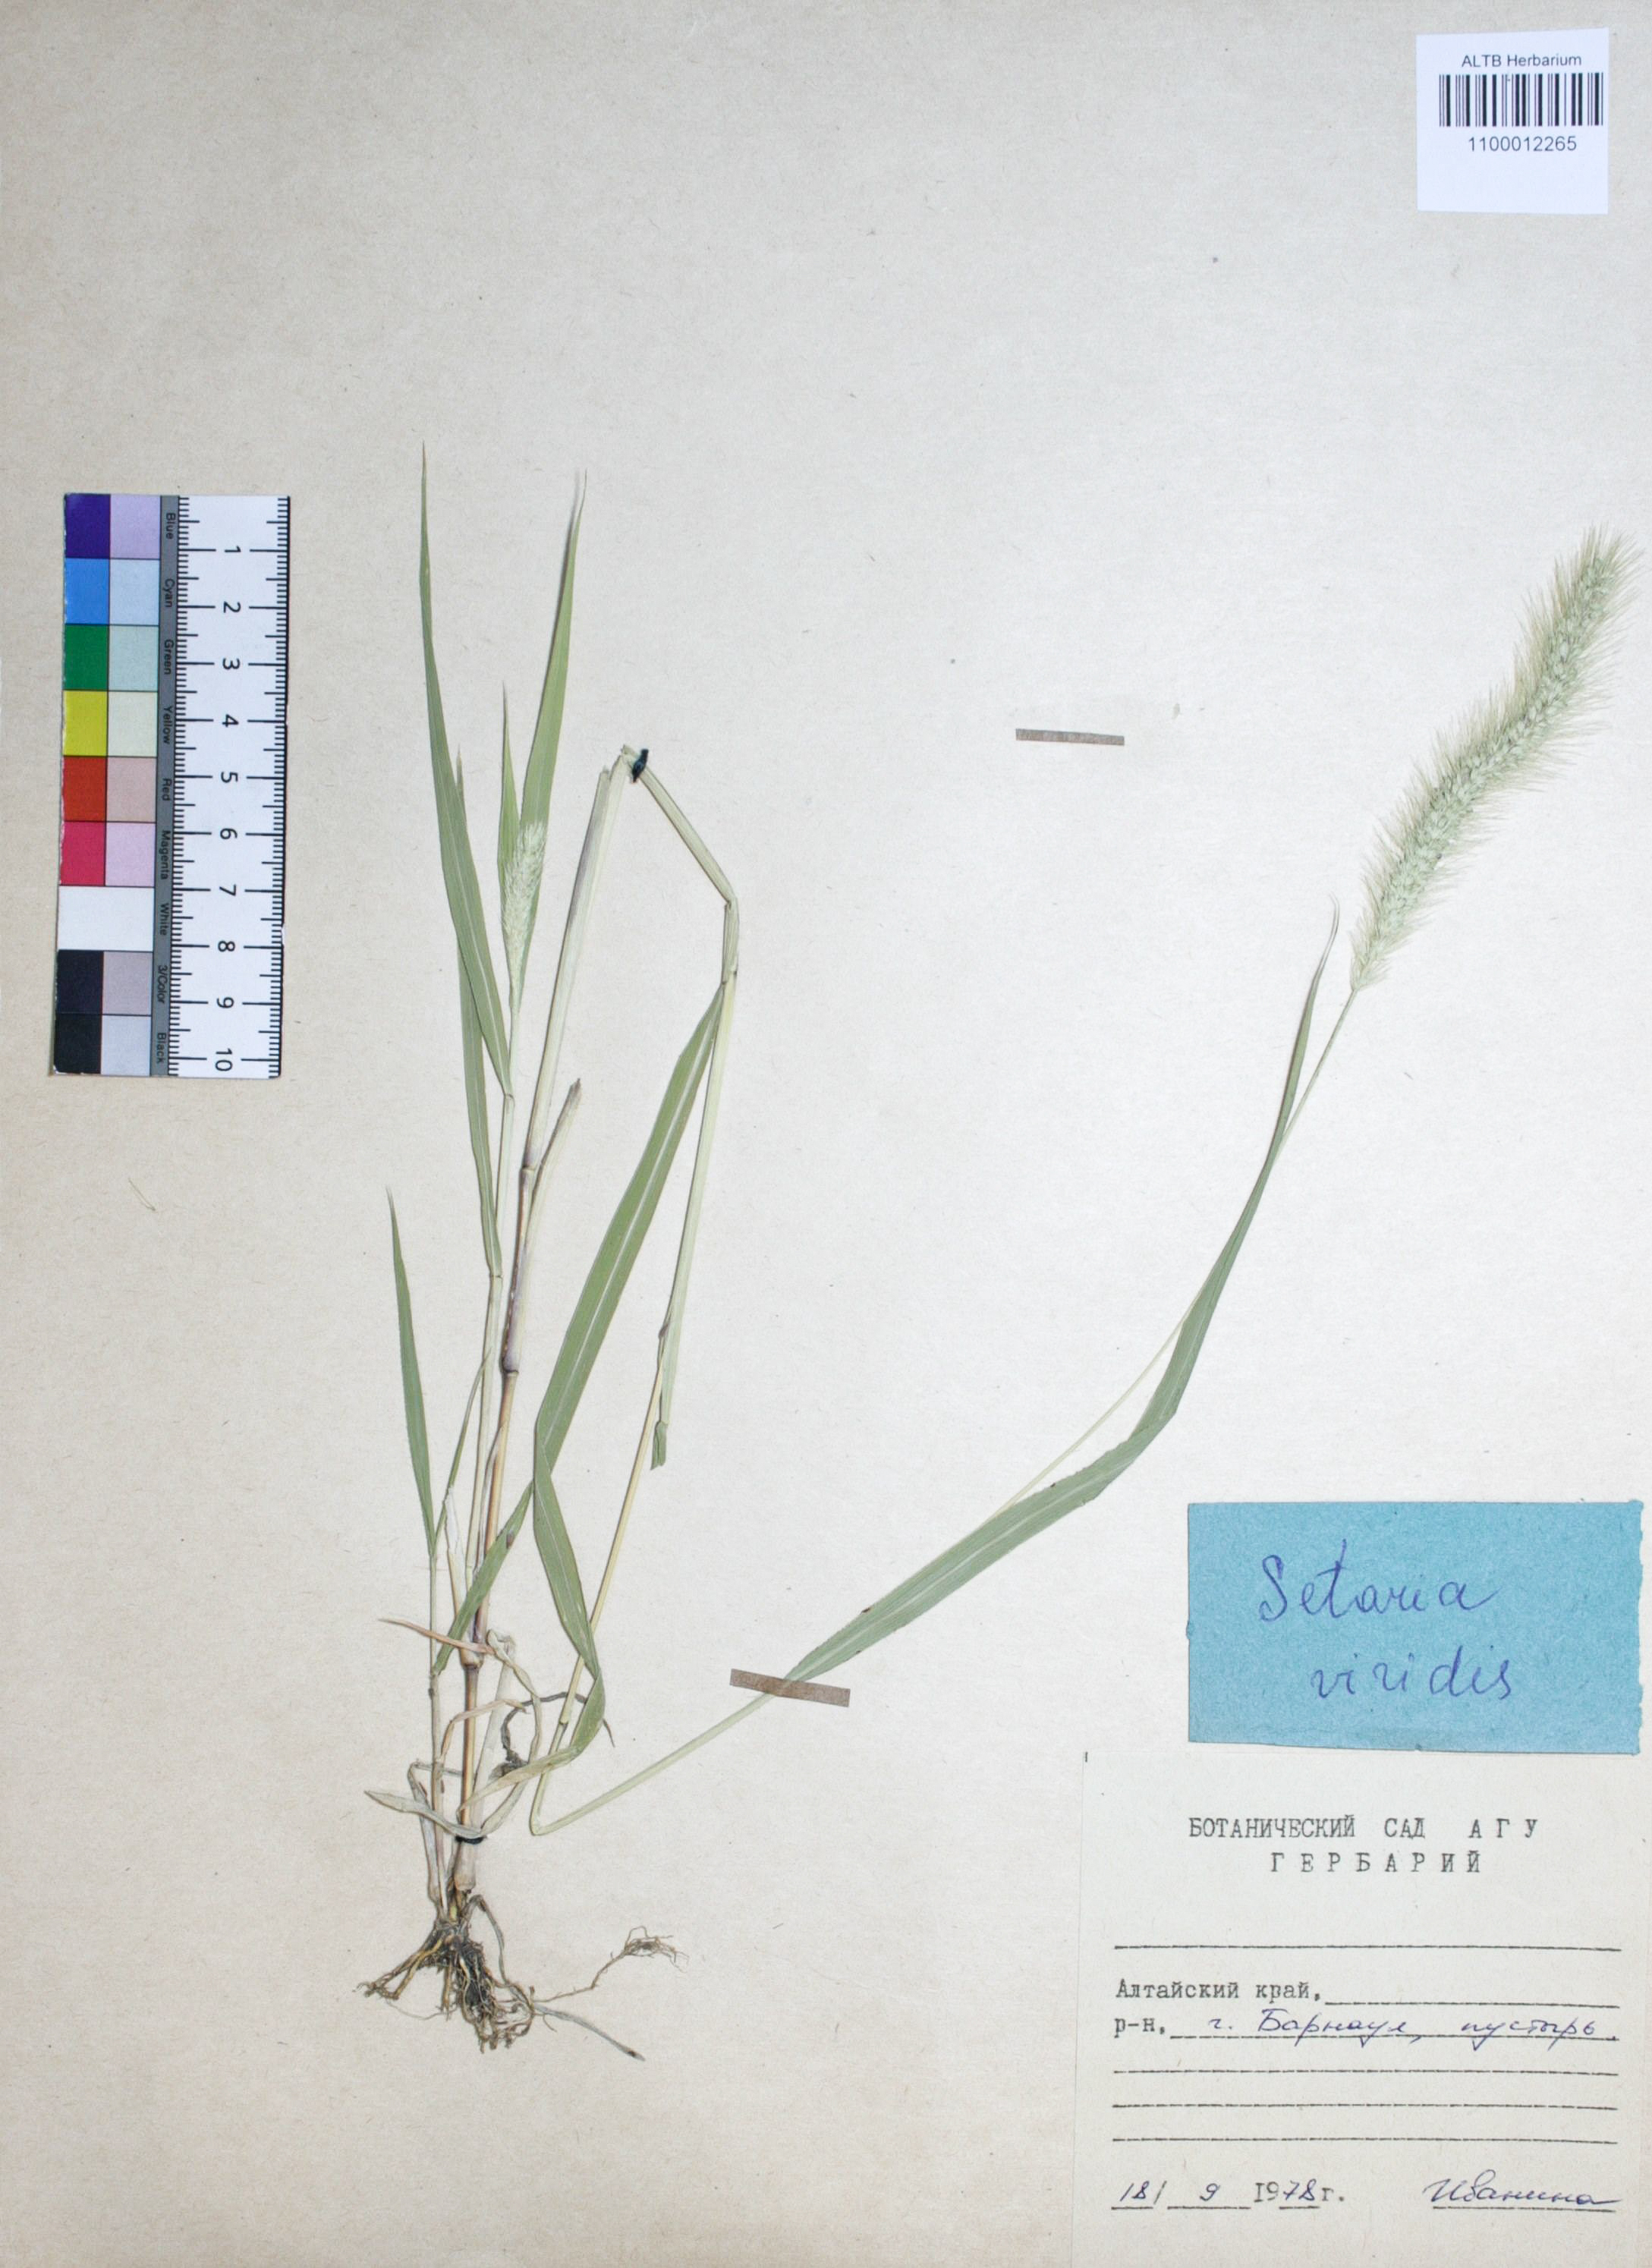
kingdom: Plantae
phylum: Tracheophyta
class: Liliopsida
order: Poales
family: Poaceae
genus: Setaria
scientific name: Setaria viridis
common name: Green bristlegrass
